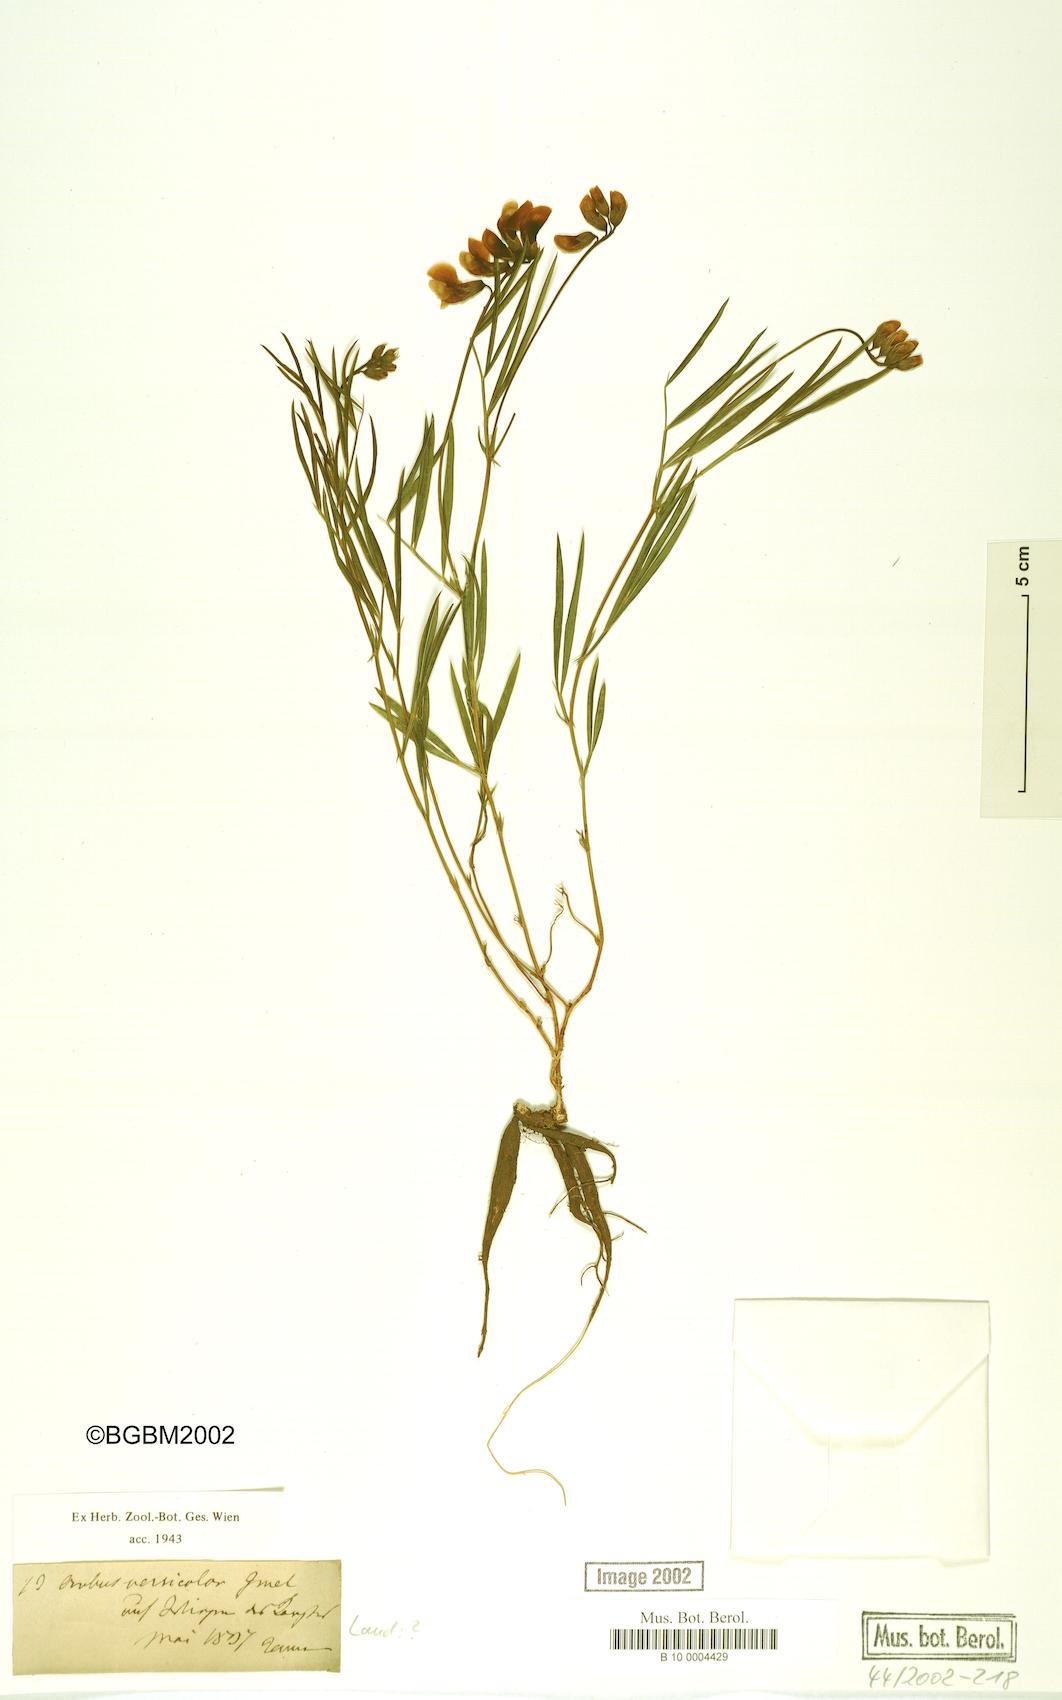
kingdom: Plantae
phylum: Tracheophyta
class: Magnoliopsida
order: Fabales
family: Fabaceae
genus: Lathyrus
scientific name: Lathyrus pannonicus
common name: Pea
